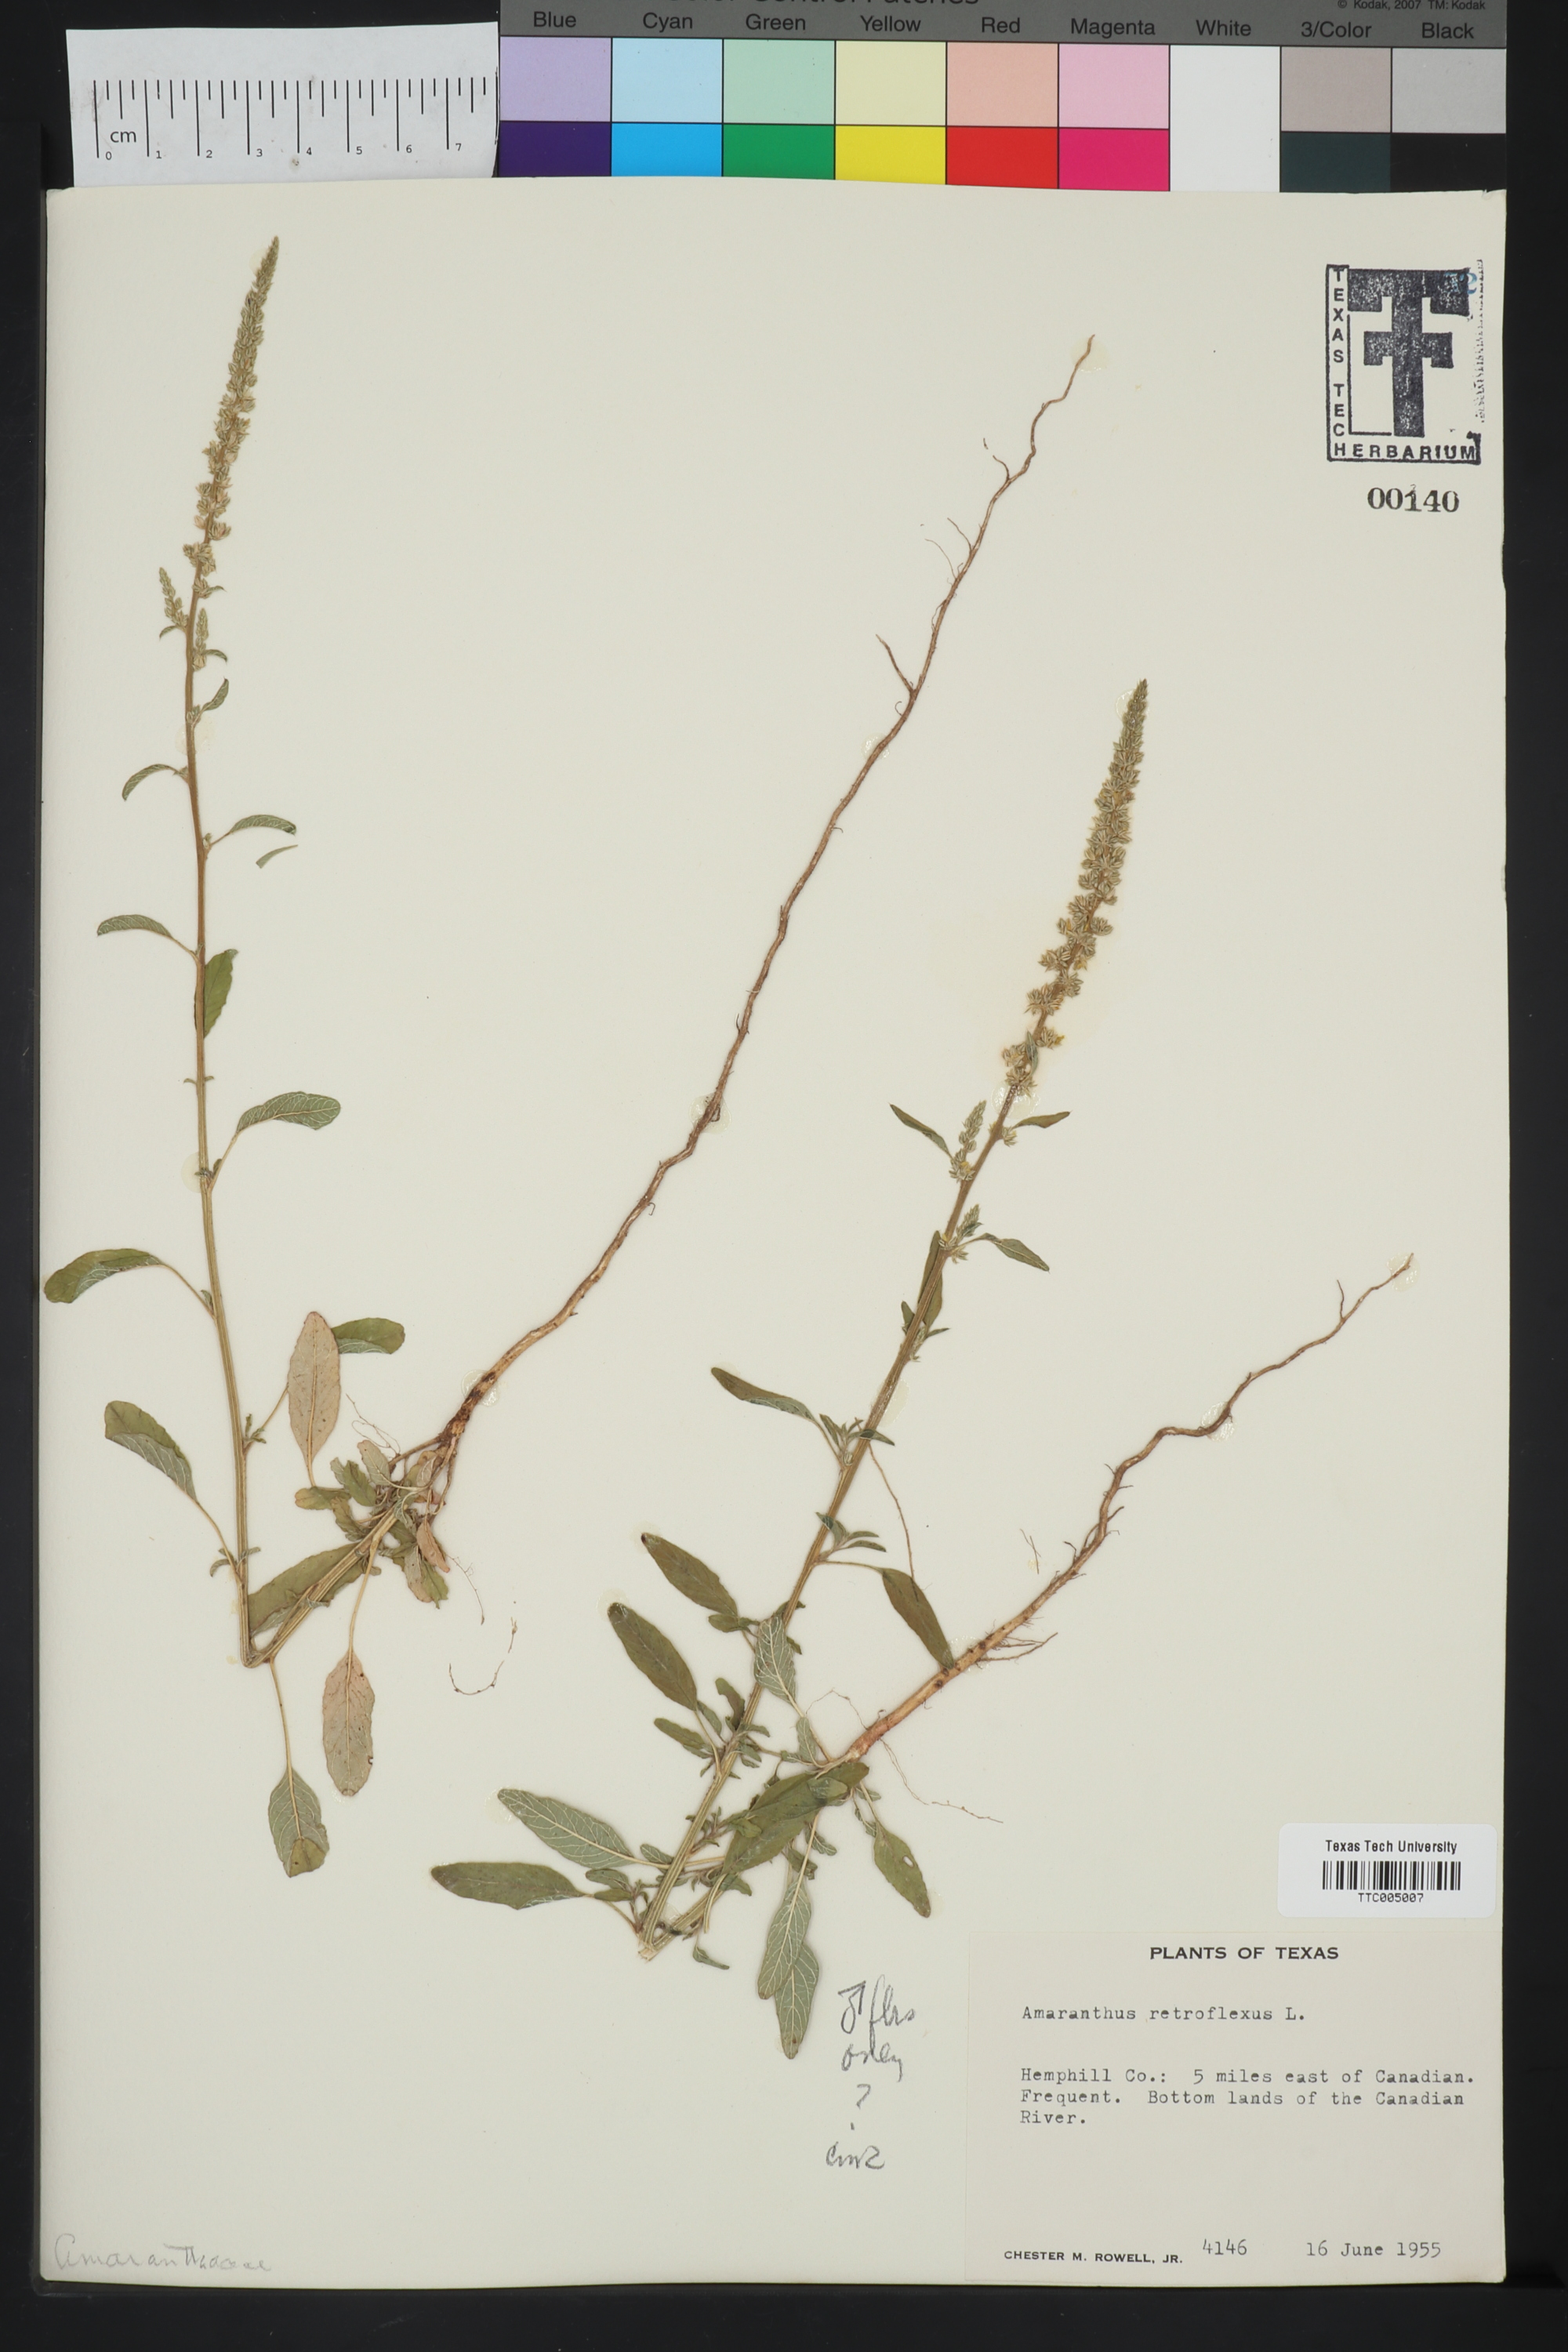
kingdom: Plantae
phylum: Tracheophyta
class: Magnoliopsida
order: Caryophyllales
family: Amaranthaceae
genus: Amaranthus
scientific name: Amaranthus retroflexus
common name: Redroot amaranth
